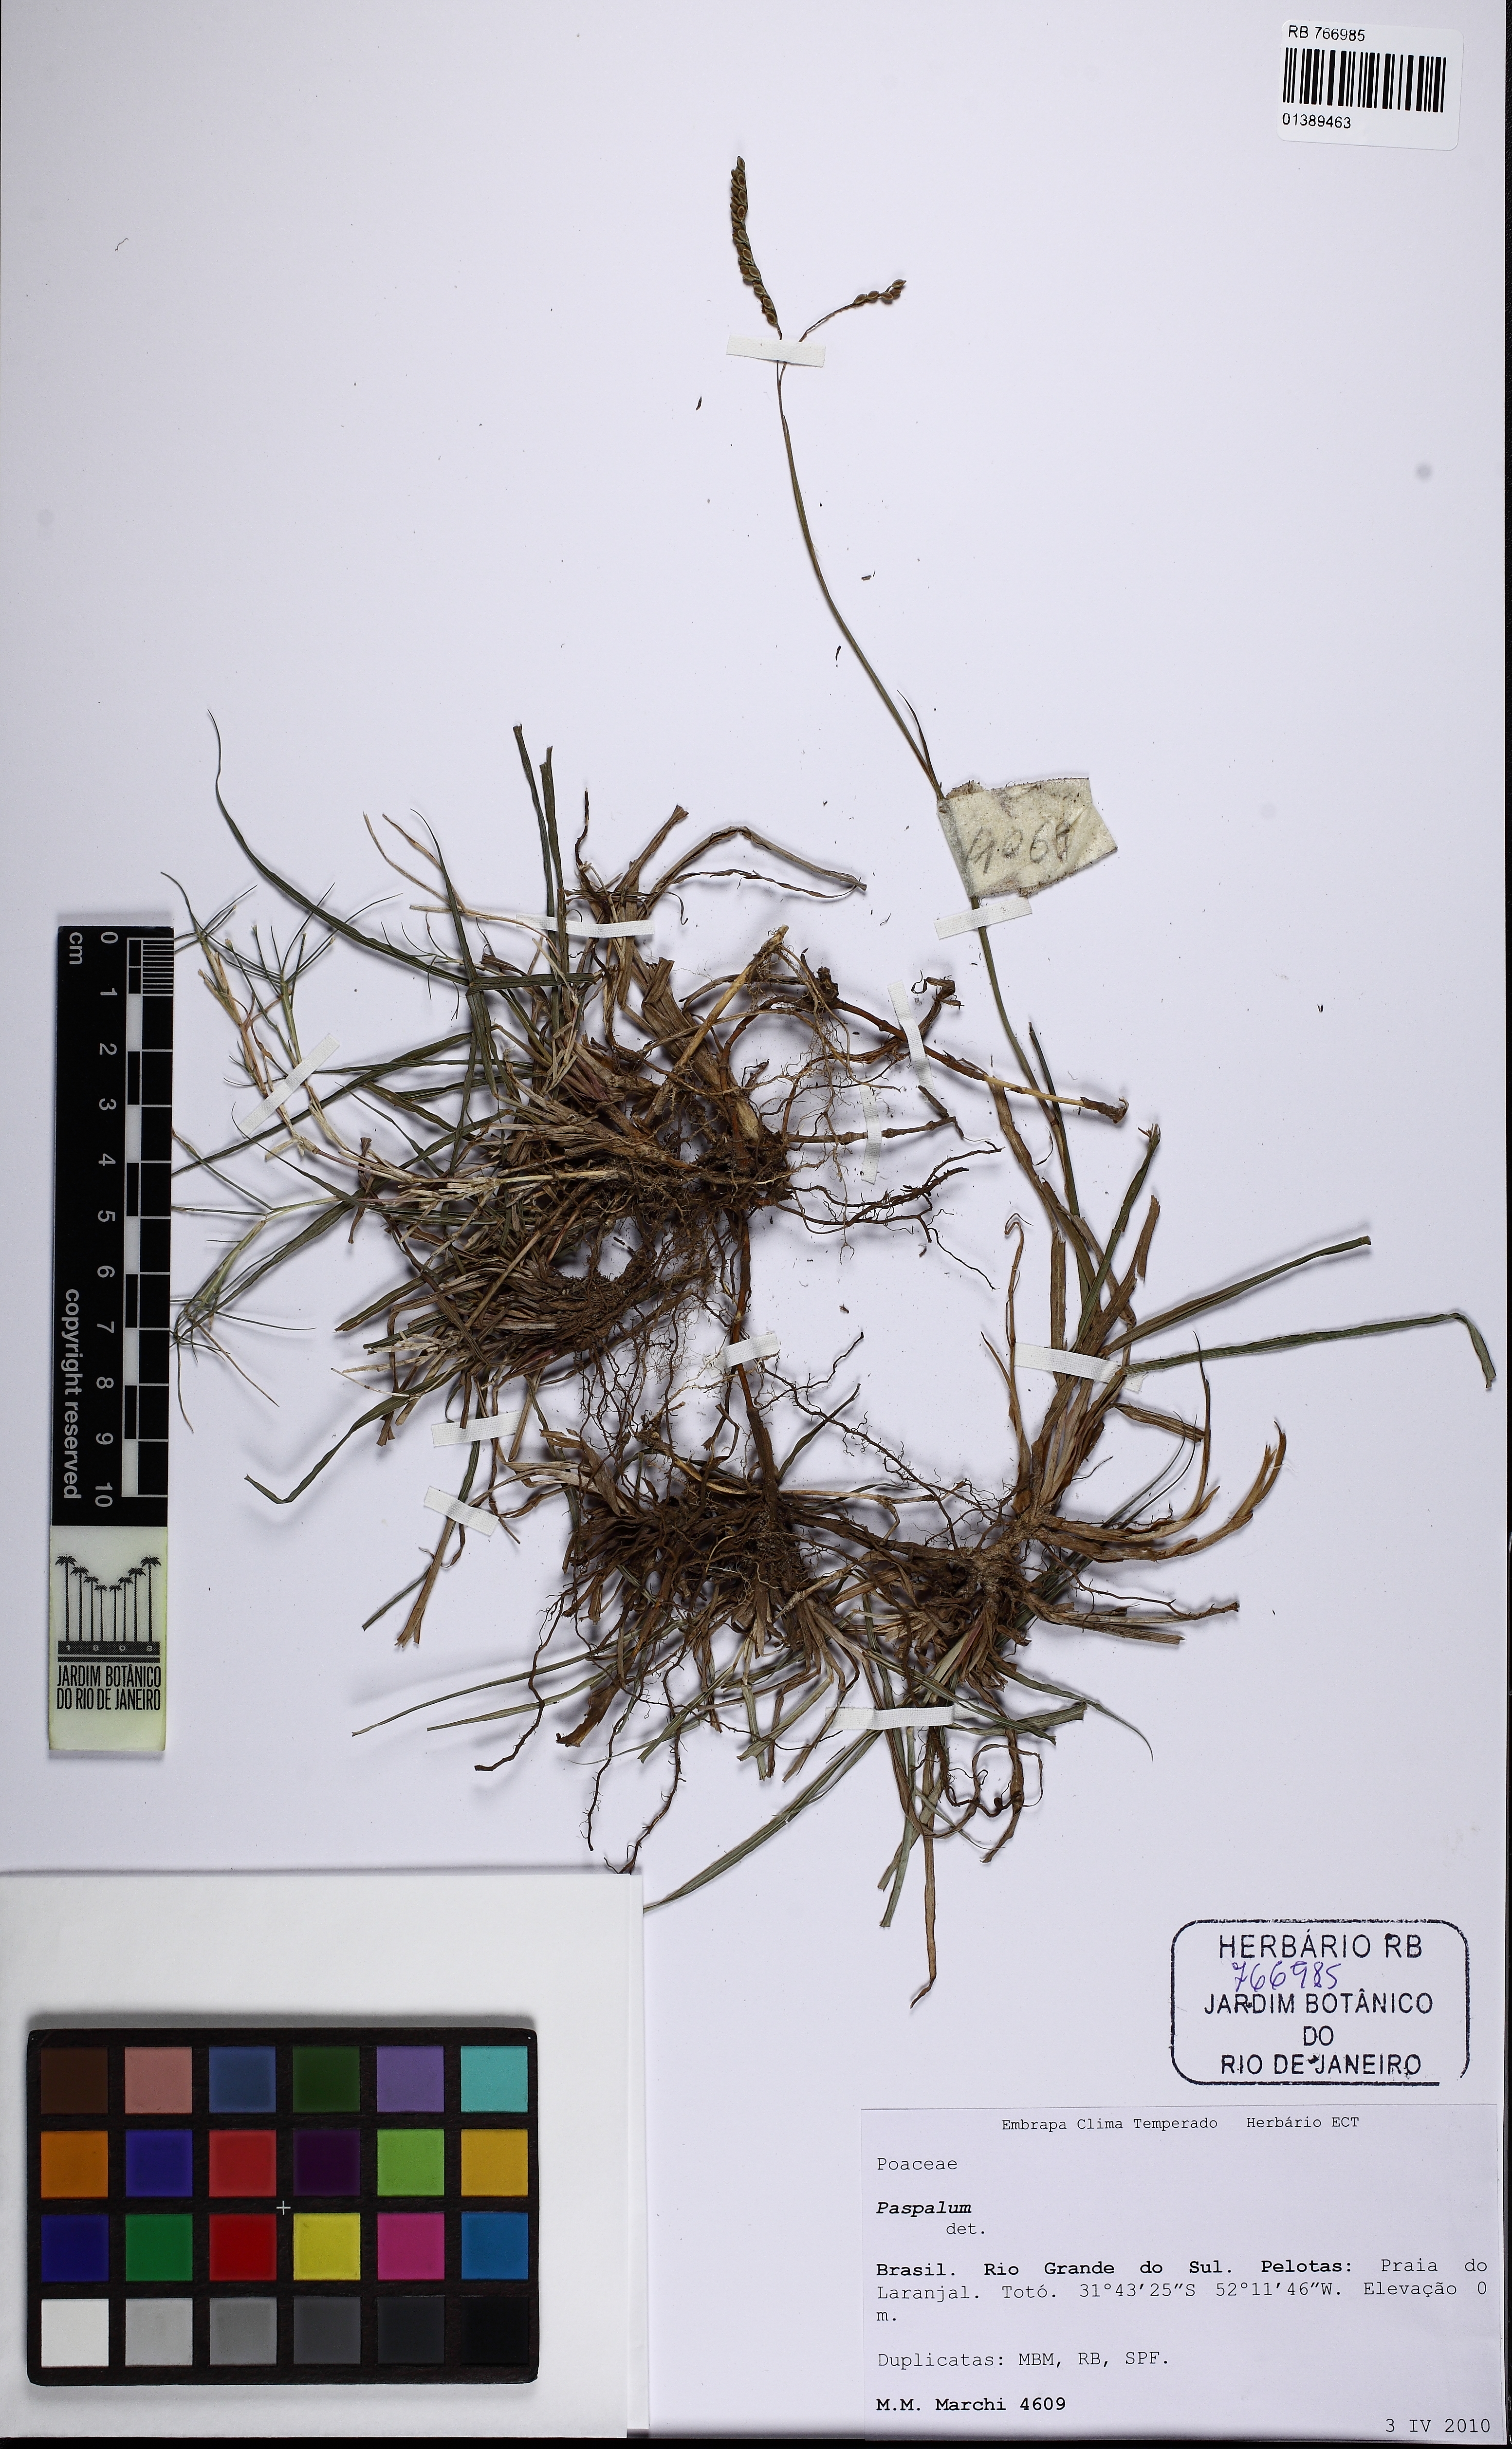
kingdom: Plantae
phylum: Tracheophyta
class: Liliopsida
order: Poales
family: Poaceae
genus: Paspalum
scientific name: Paspalum lepton
